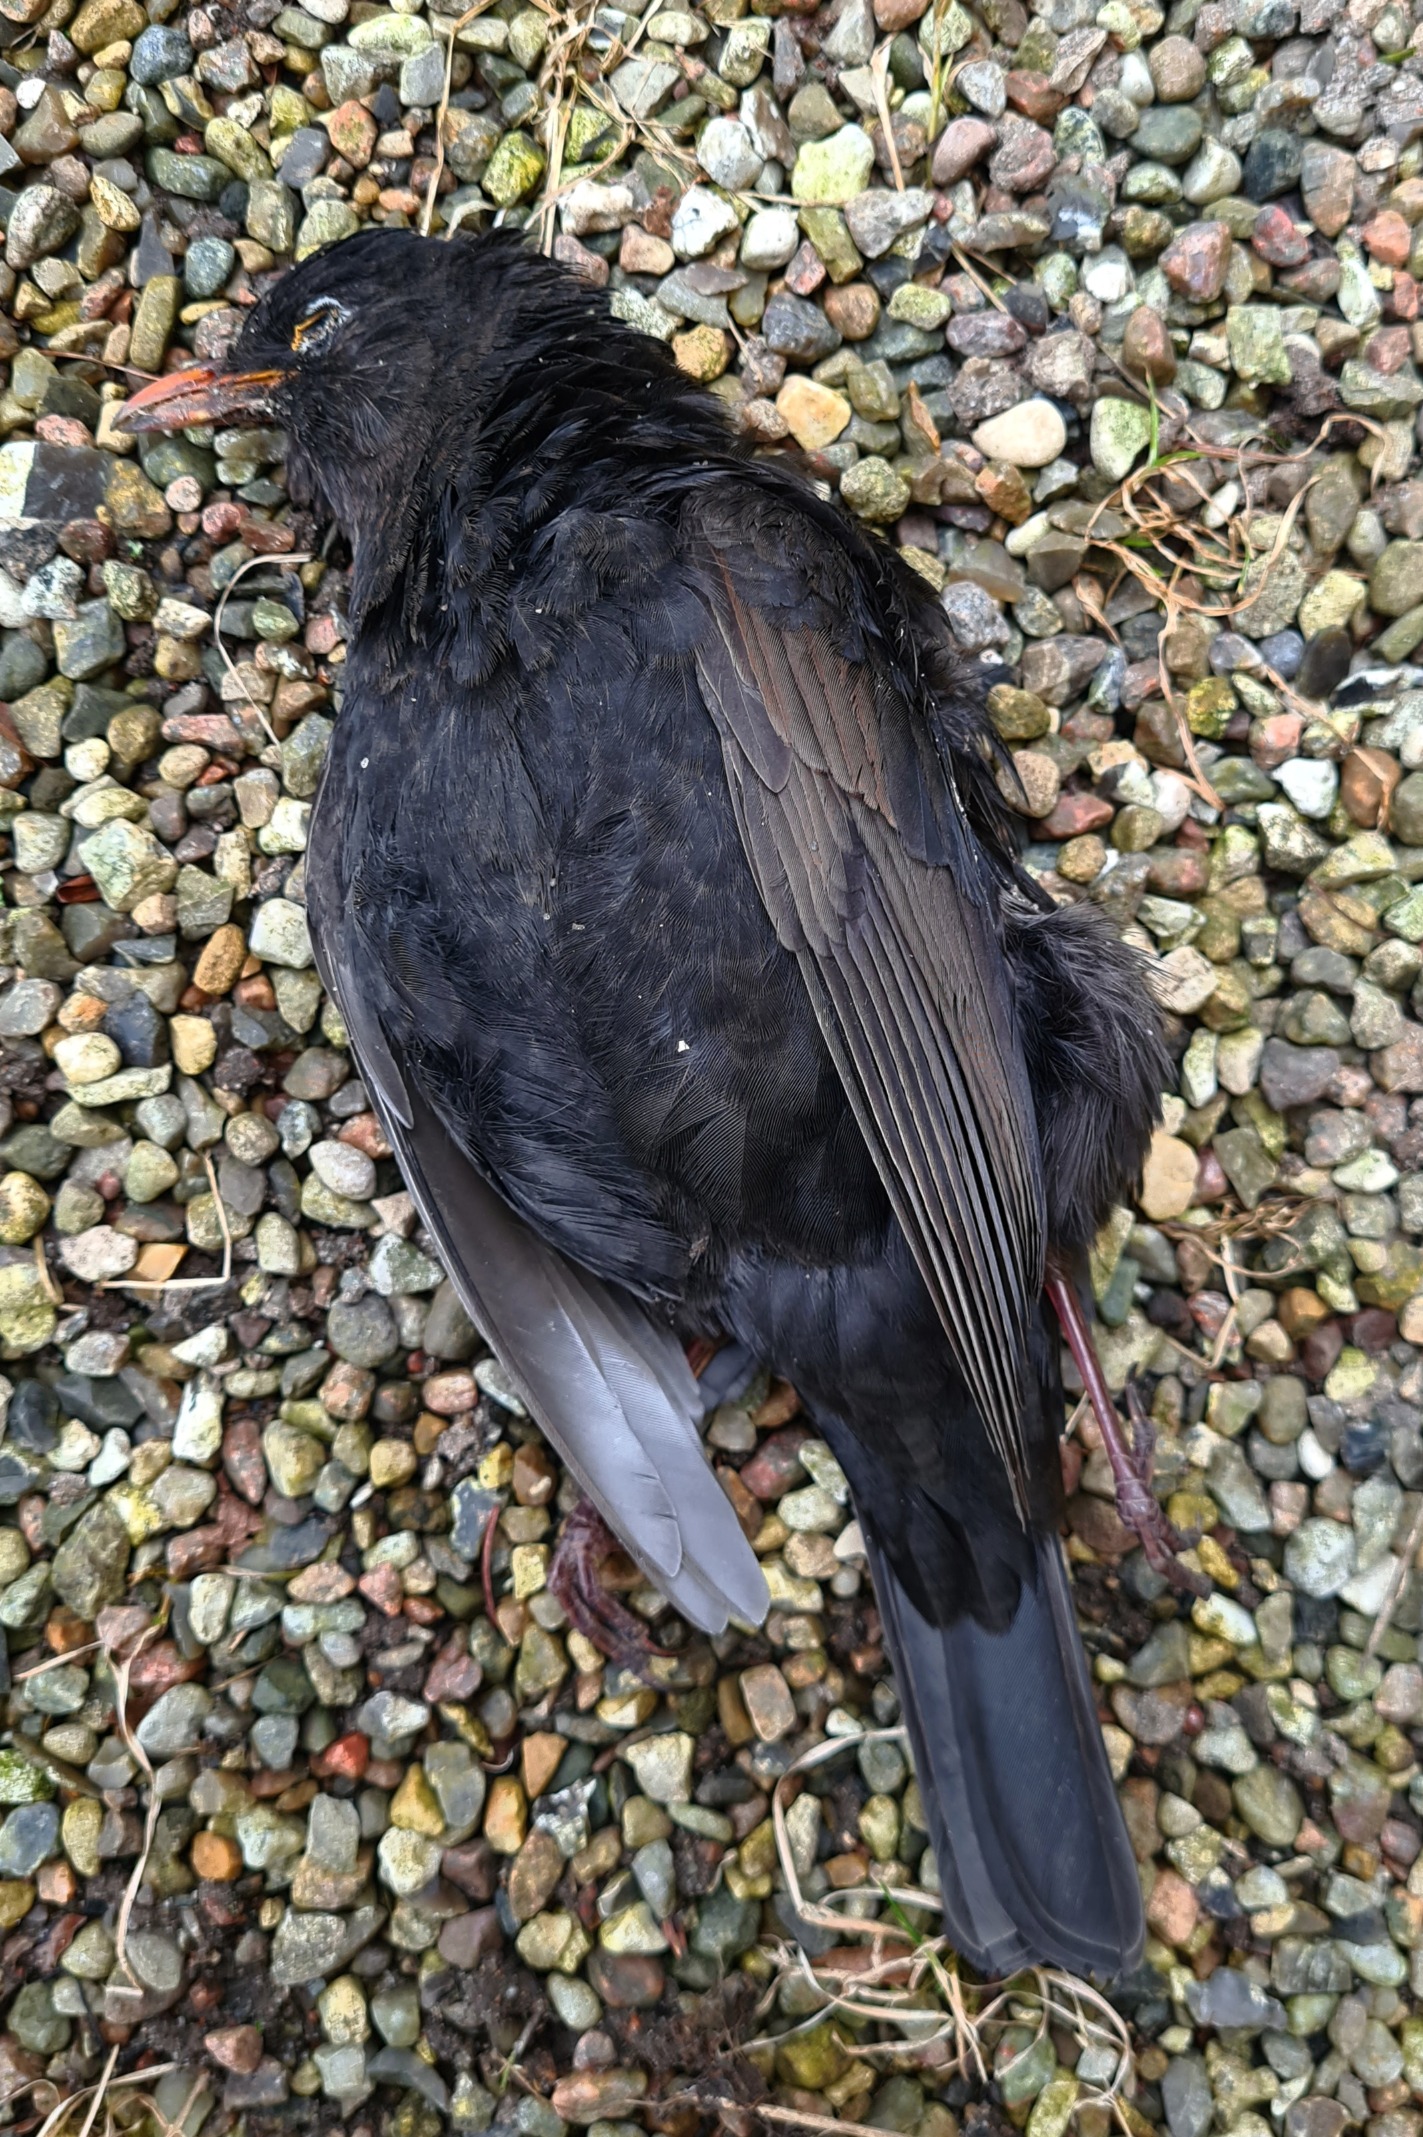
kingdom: Animalia
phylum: Chordata
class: Aves
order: Passeriformes
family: Turdidae
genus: Turdus
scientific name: Turdus merula
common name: Solsort
